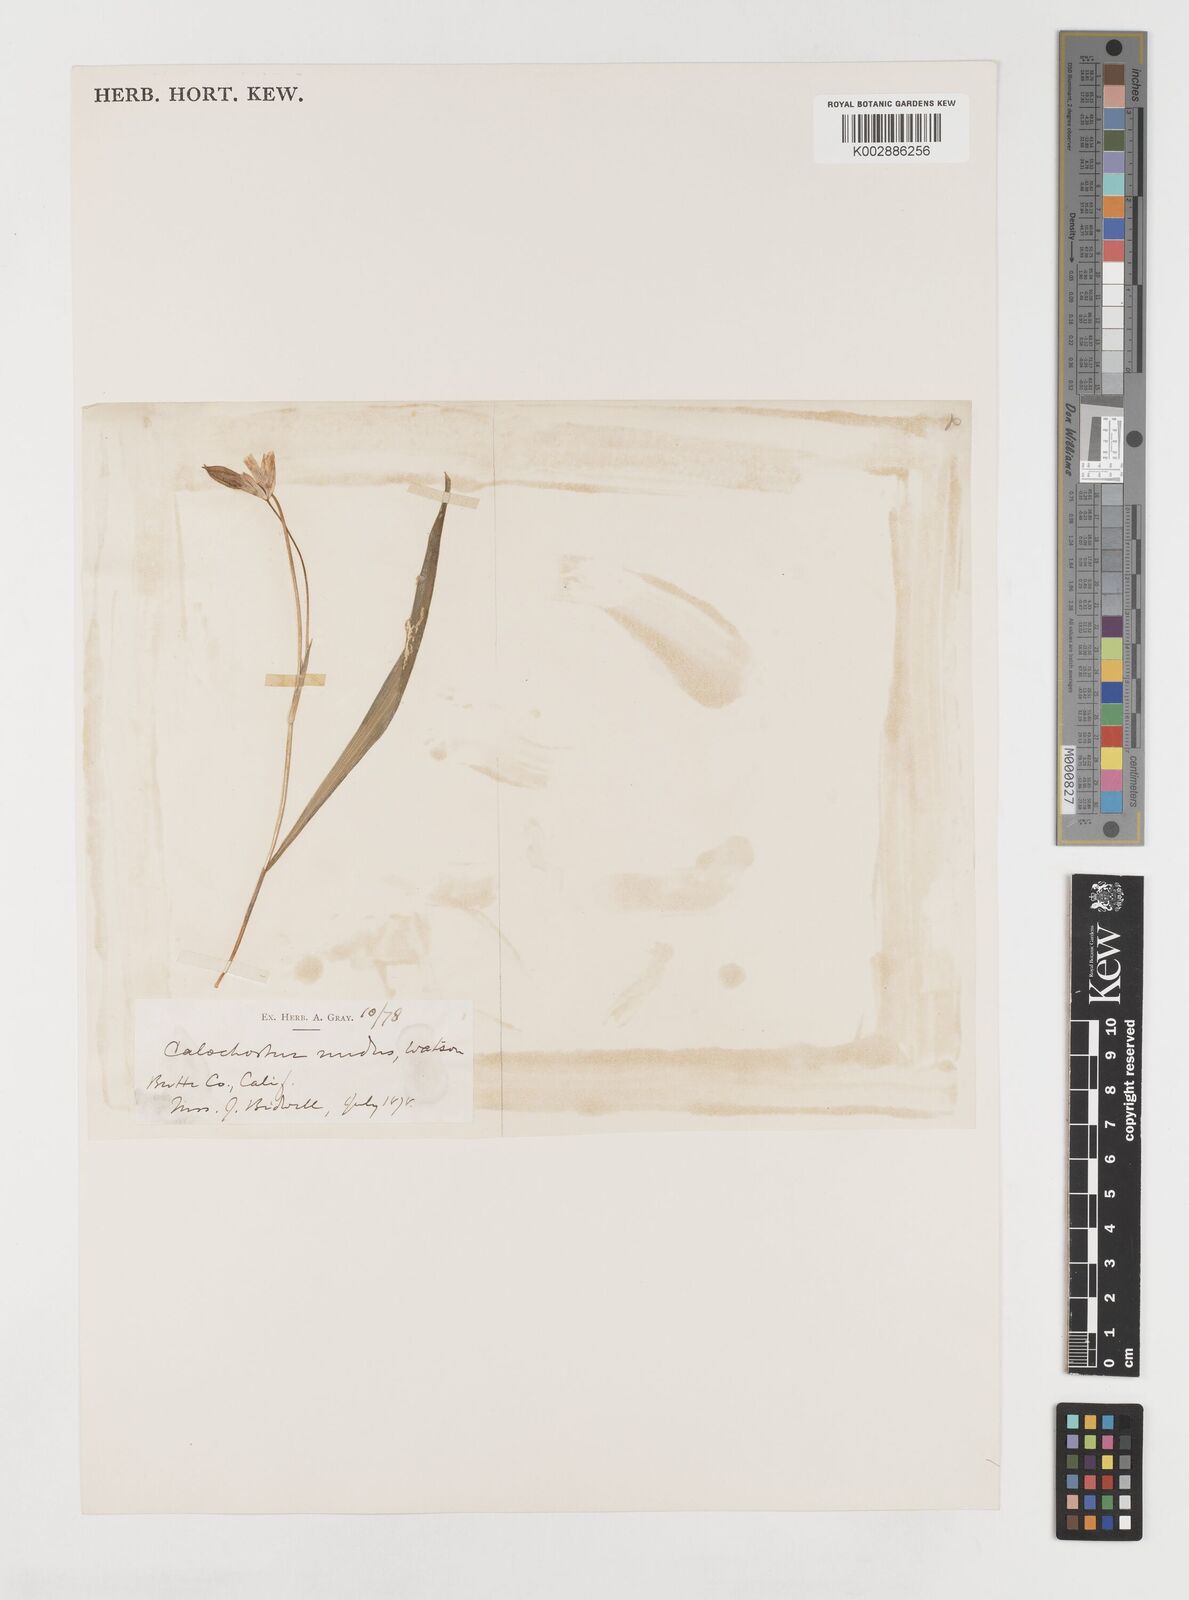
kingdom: Plantae
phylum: Tracheophyta
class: Liliopsida
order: Liliales
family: Liliaceae
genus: Calochortus
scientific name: Calochortus nudus
